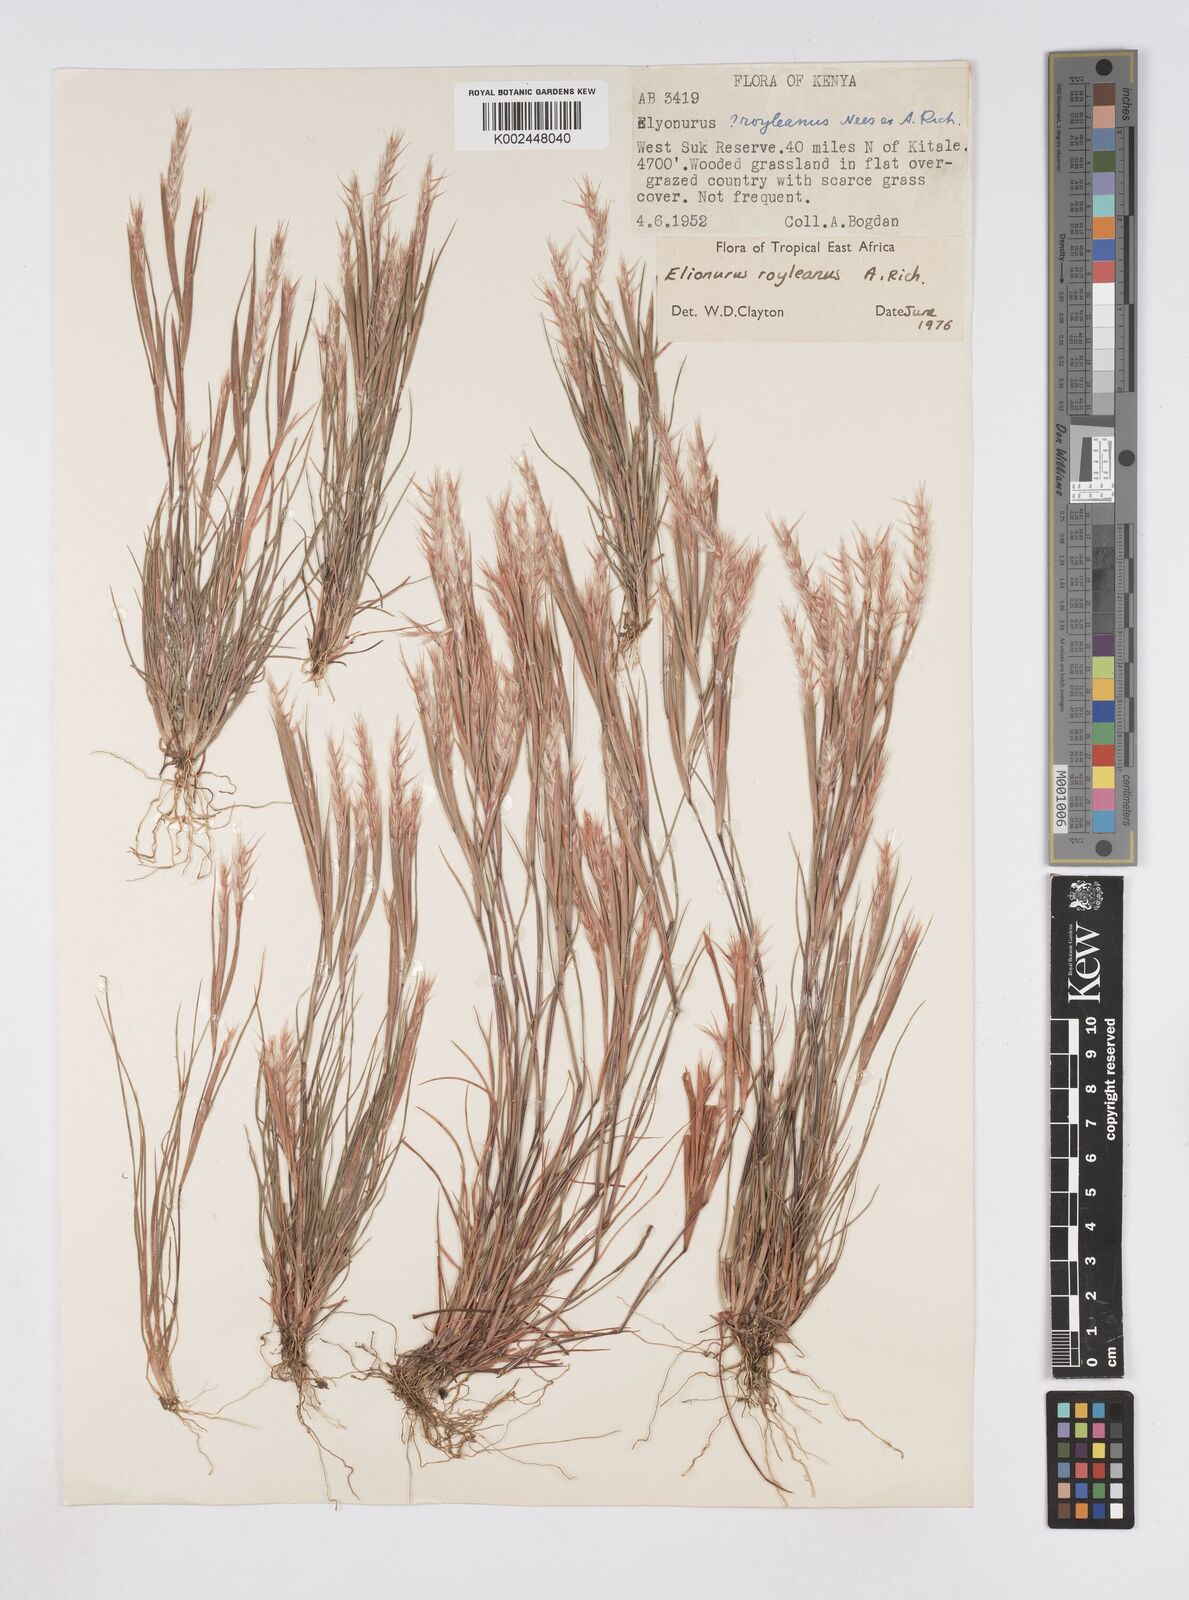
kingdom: Plantae
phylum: Tracheophyta
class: Liliopsida
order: Poales
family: Poaceae
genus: Elionurus
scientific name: Elionurus royleanus
